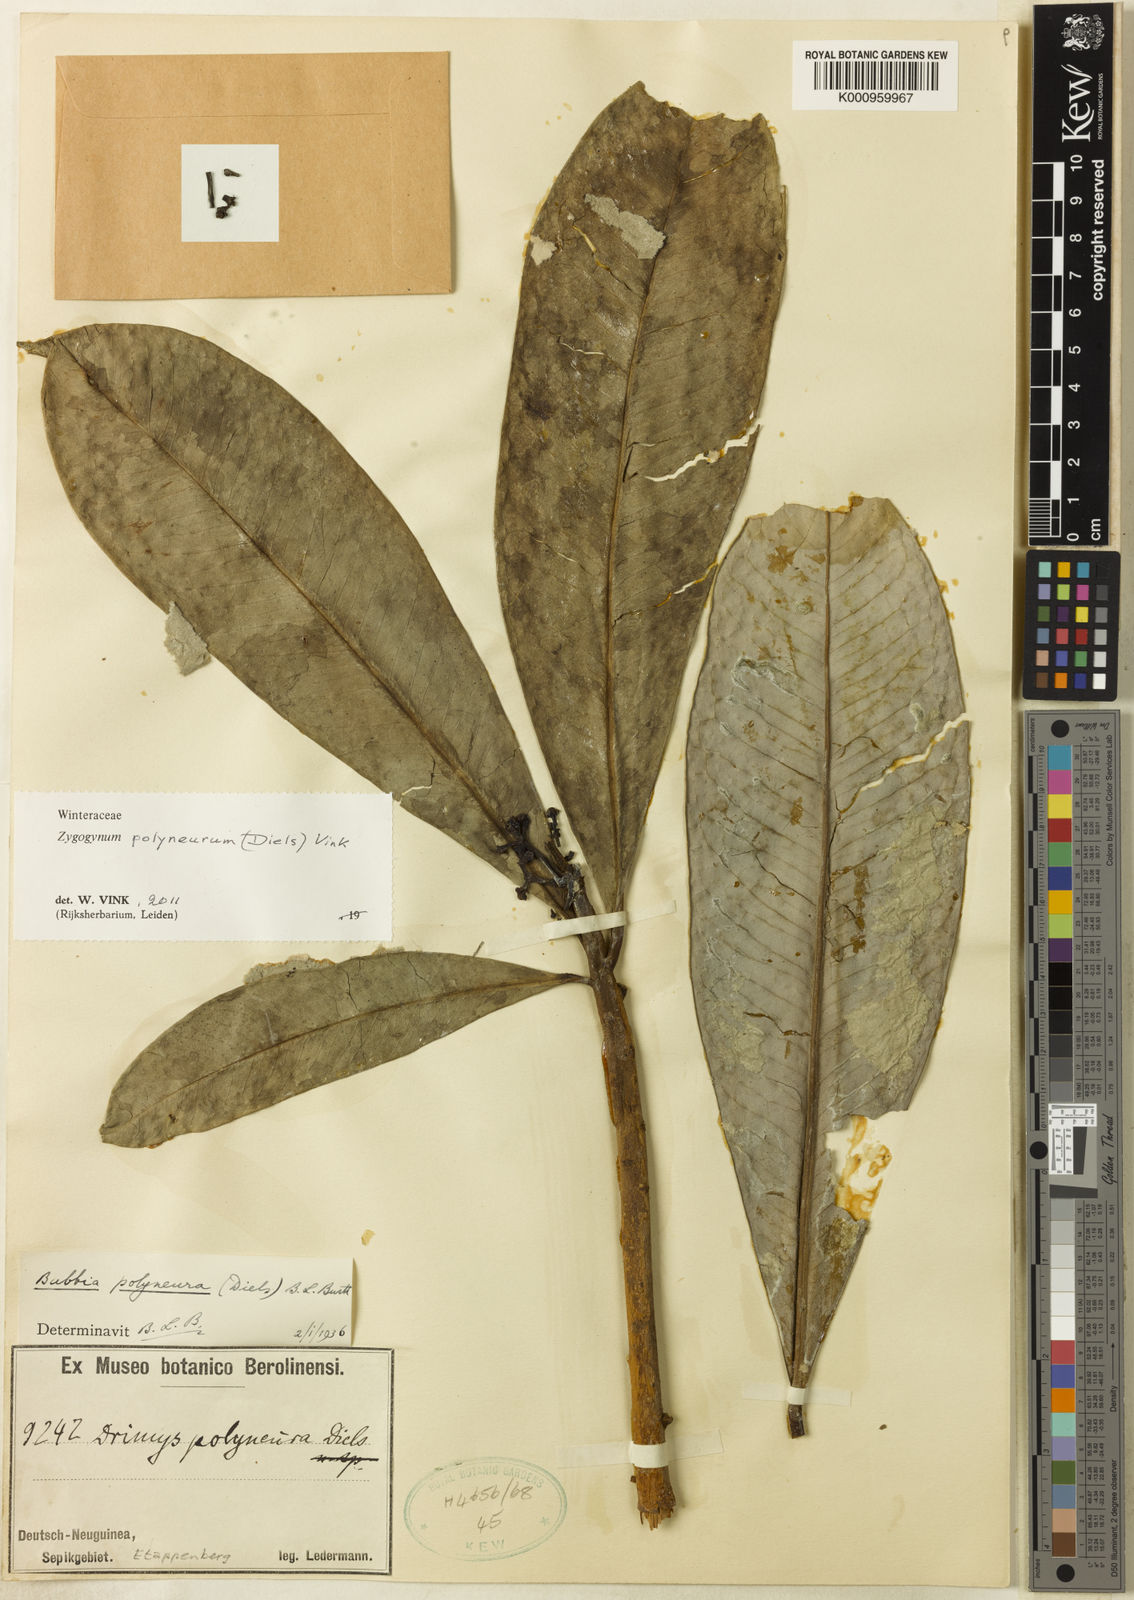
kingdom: Plantae
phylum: Tracheophyta
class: Magnoliopsida
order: Canellales
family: Winteraceae
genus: Zygogynum
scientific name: Zygogynum polyneurum
